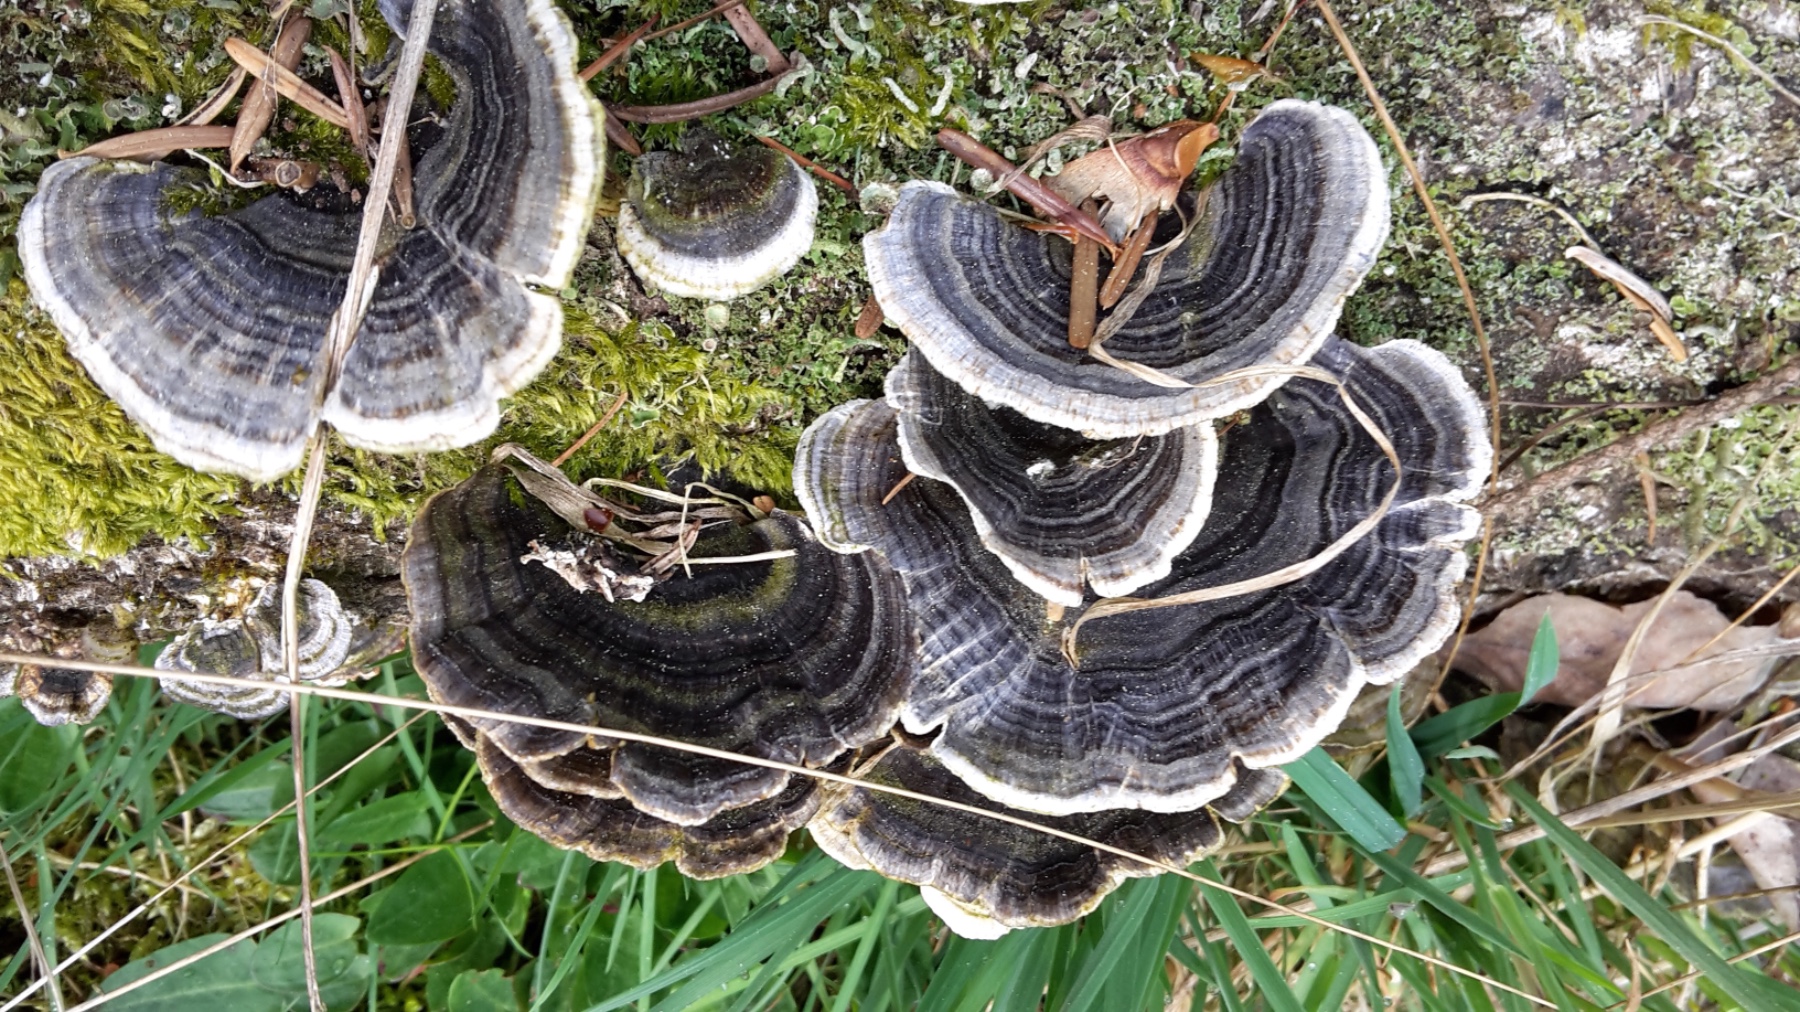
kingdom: Fungi
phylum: Basidiomycota
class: Agaricomycetes
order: Polyporales
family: Polyporaceae
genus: Trametes
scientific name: Trametes versicolor
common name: broget læderporesvamp
